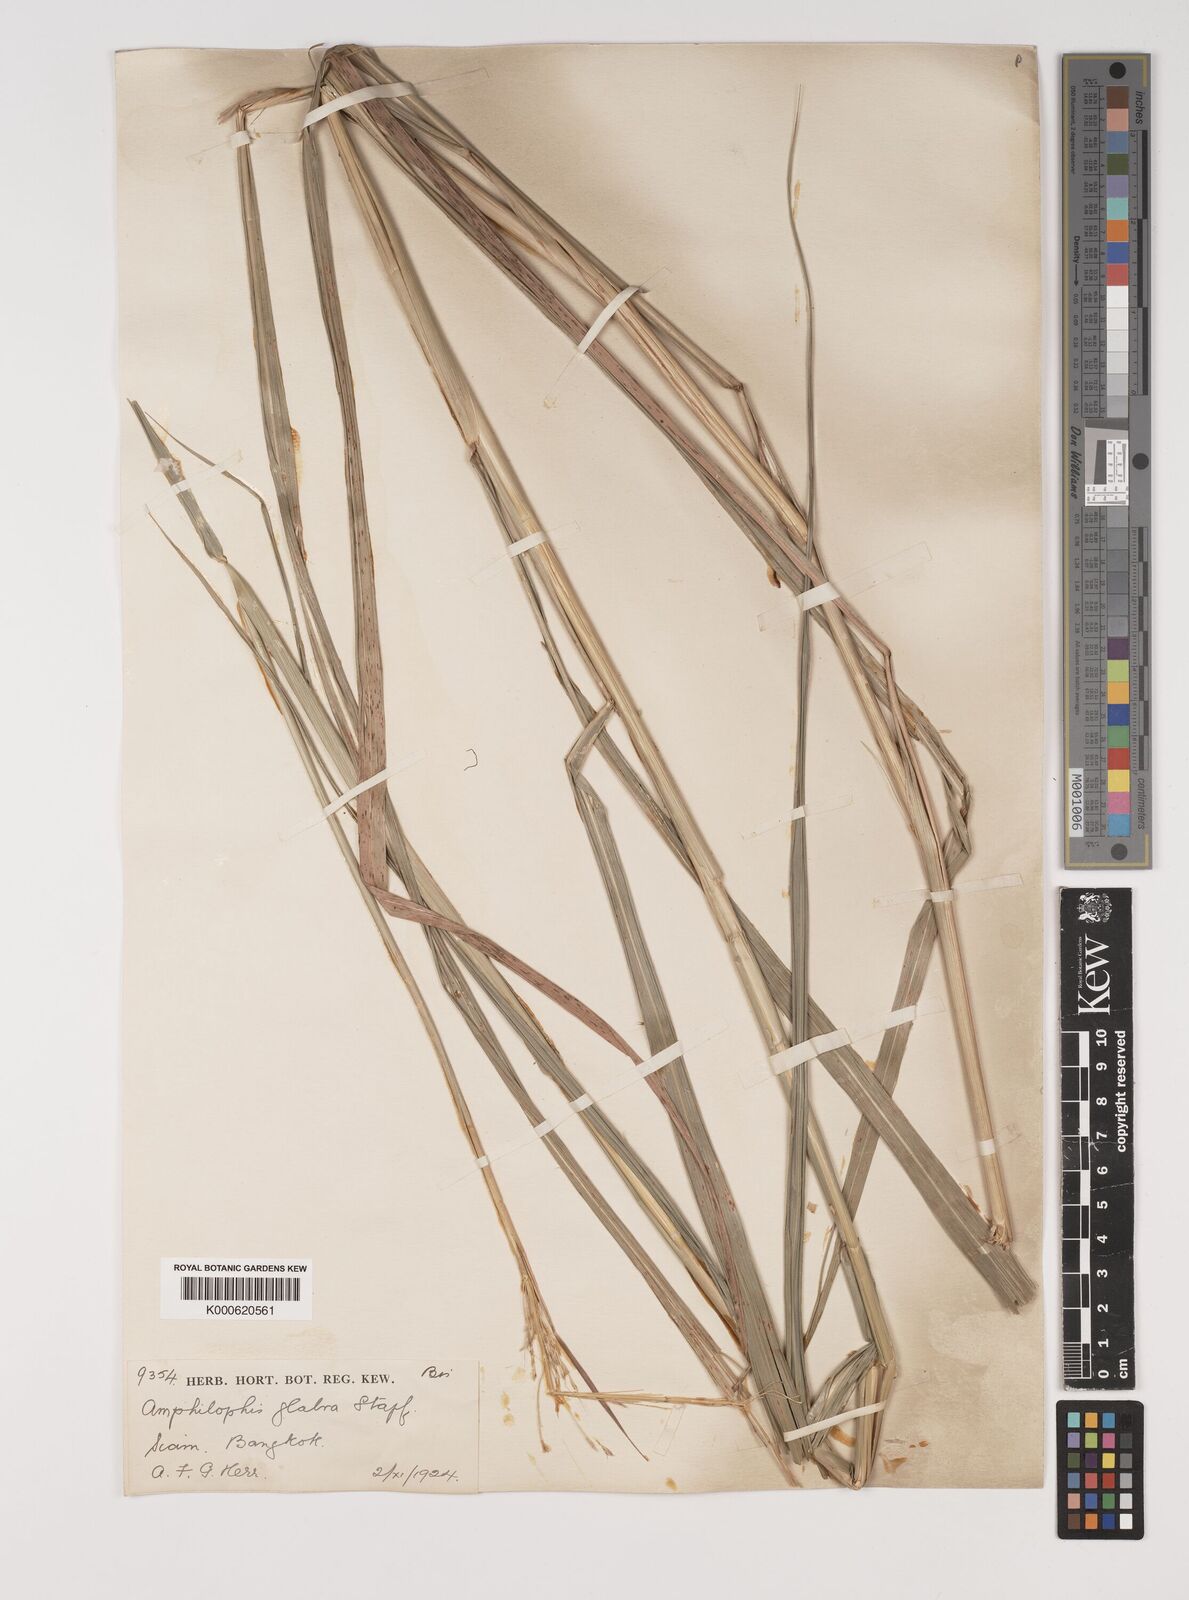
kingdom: Plantae
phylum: Tracheophyta
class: Liliopsida
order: Poales
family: Poaceae
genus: Bothriochloa
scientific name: Bothriochloa bladhii
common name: Caucasian bluestem
